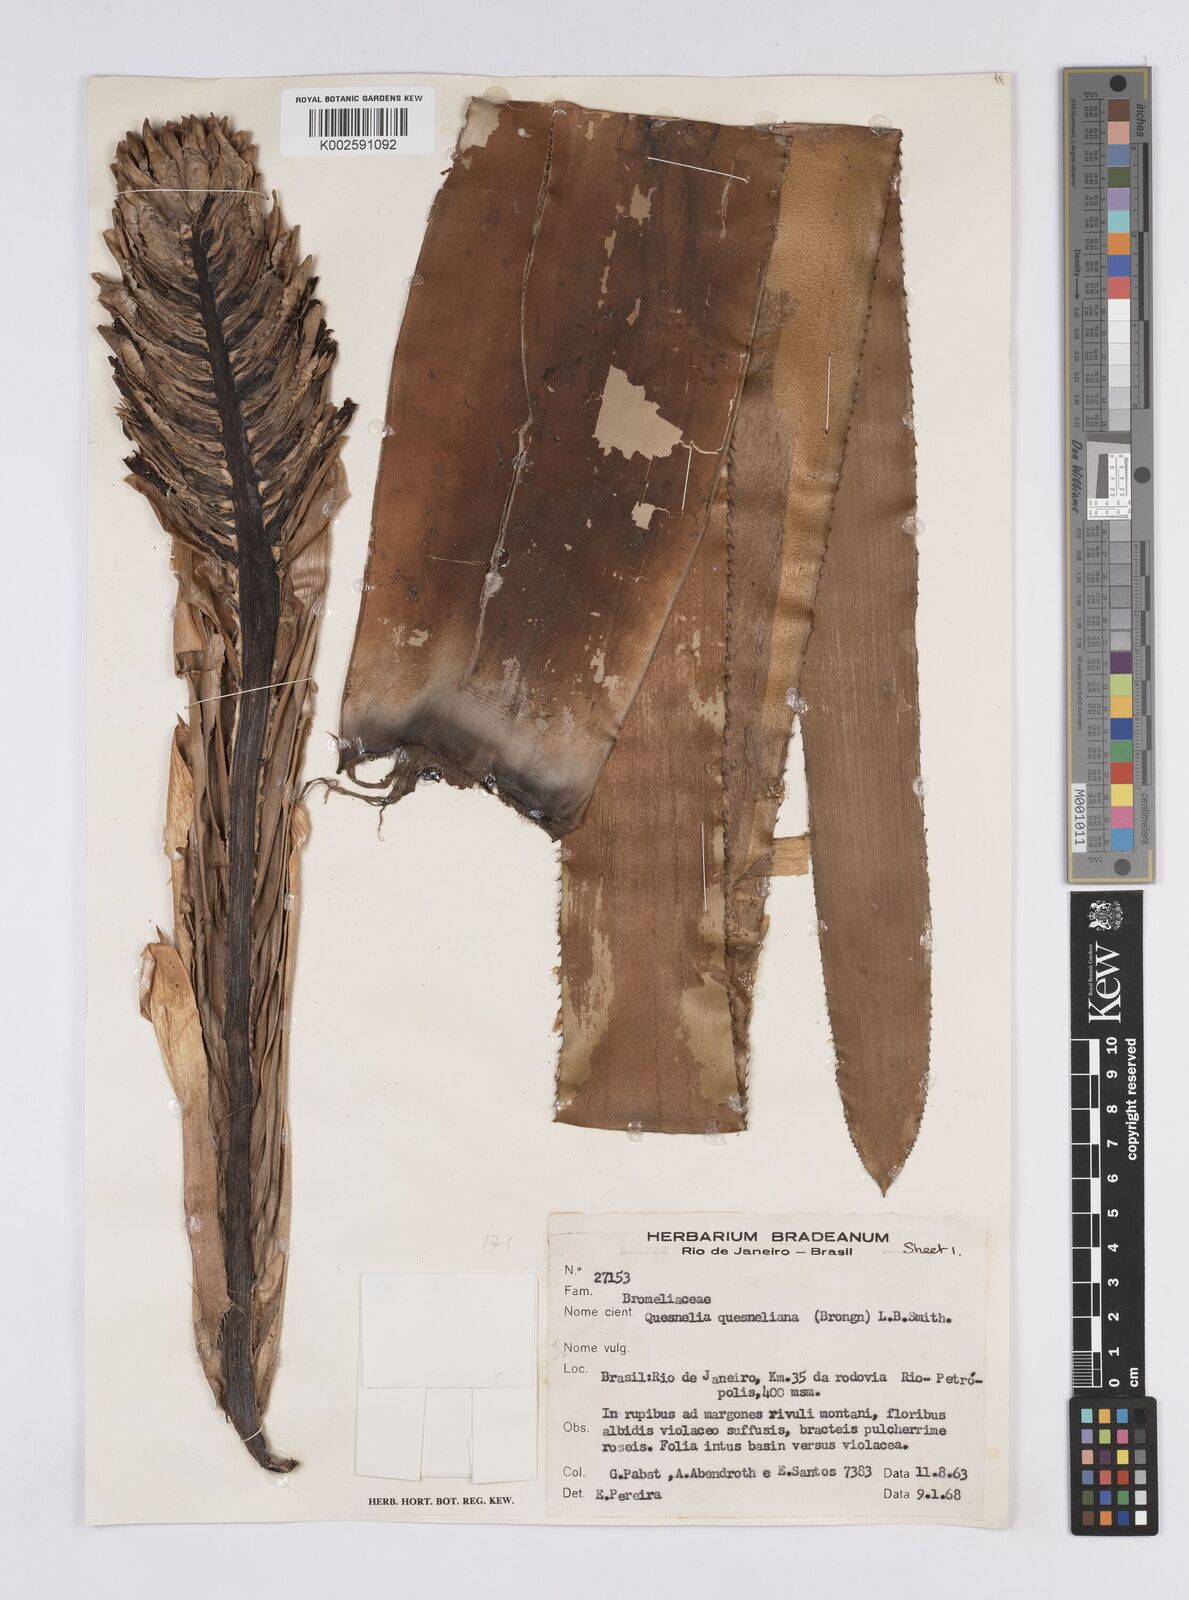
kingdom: Plantae
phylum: Tracheophyta
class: Liliopsida
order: Poales
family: Bromeliaceae
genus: Quesnelia
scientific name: Quesnelia quesneliana
